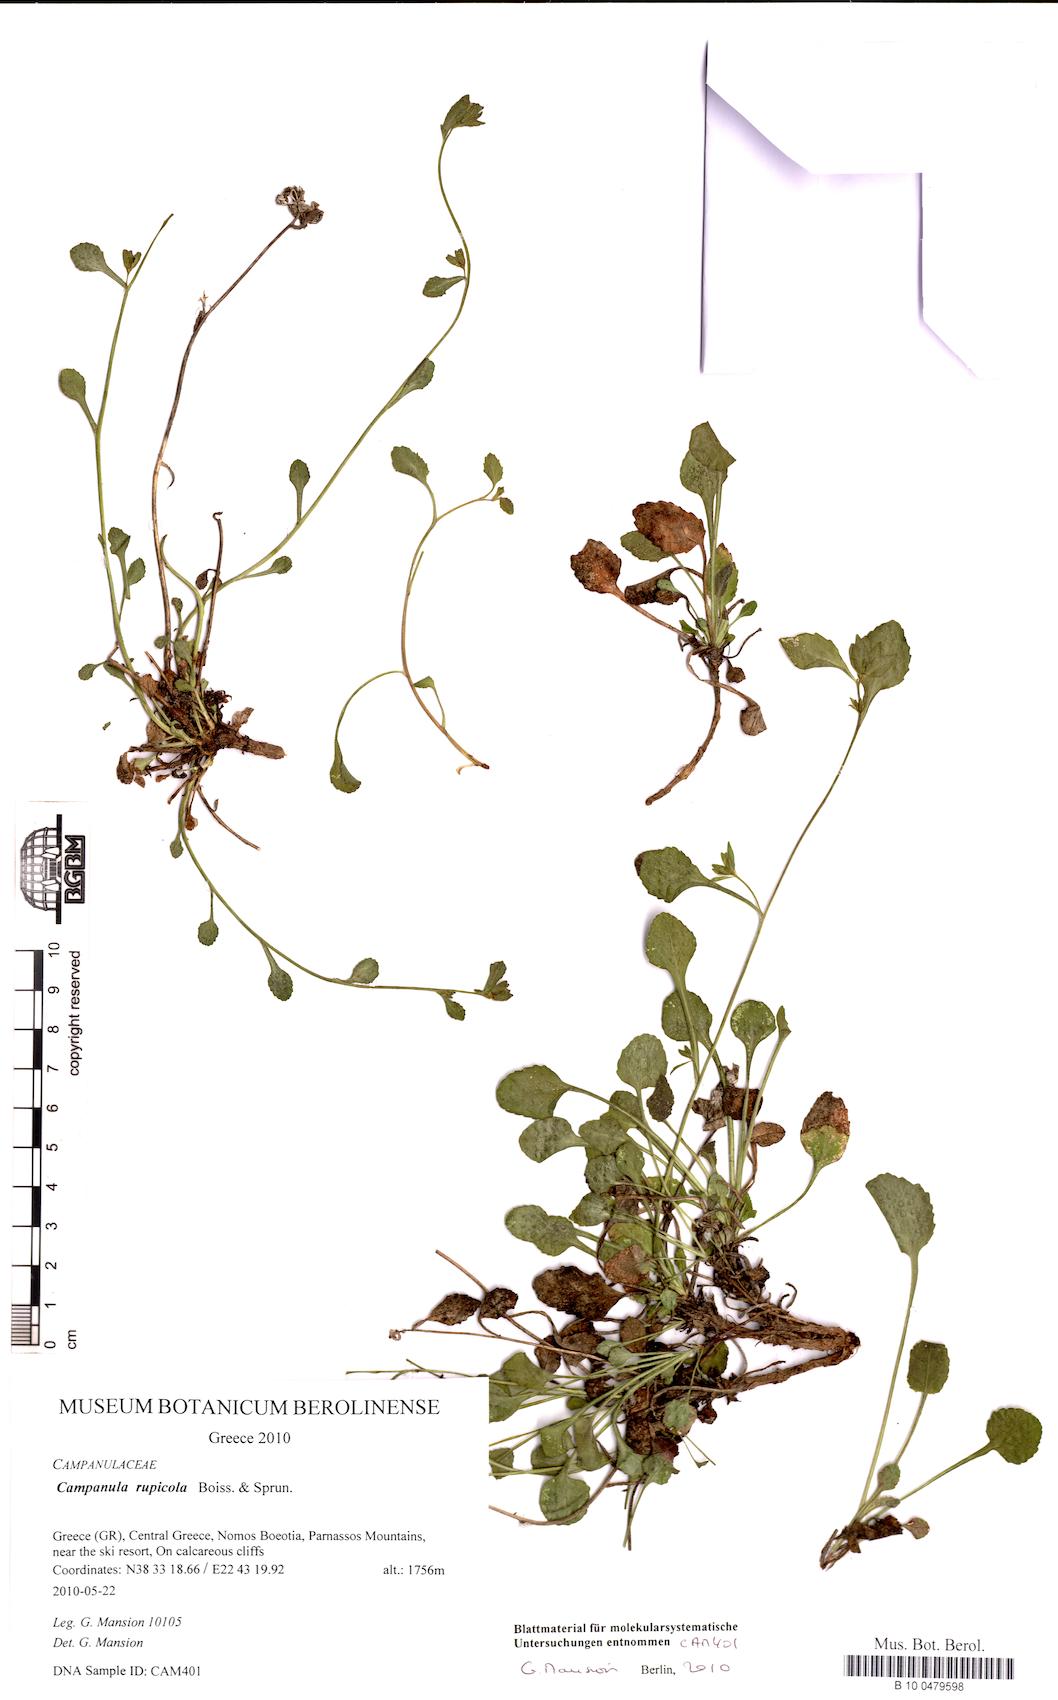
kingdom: Plantae
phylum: Tracheophyta
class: Magnoliopsida
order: Asterales
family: Campanulaceae
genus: Campanula
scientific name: Campanula rupicola
